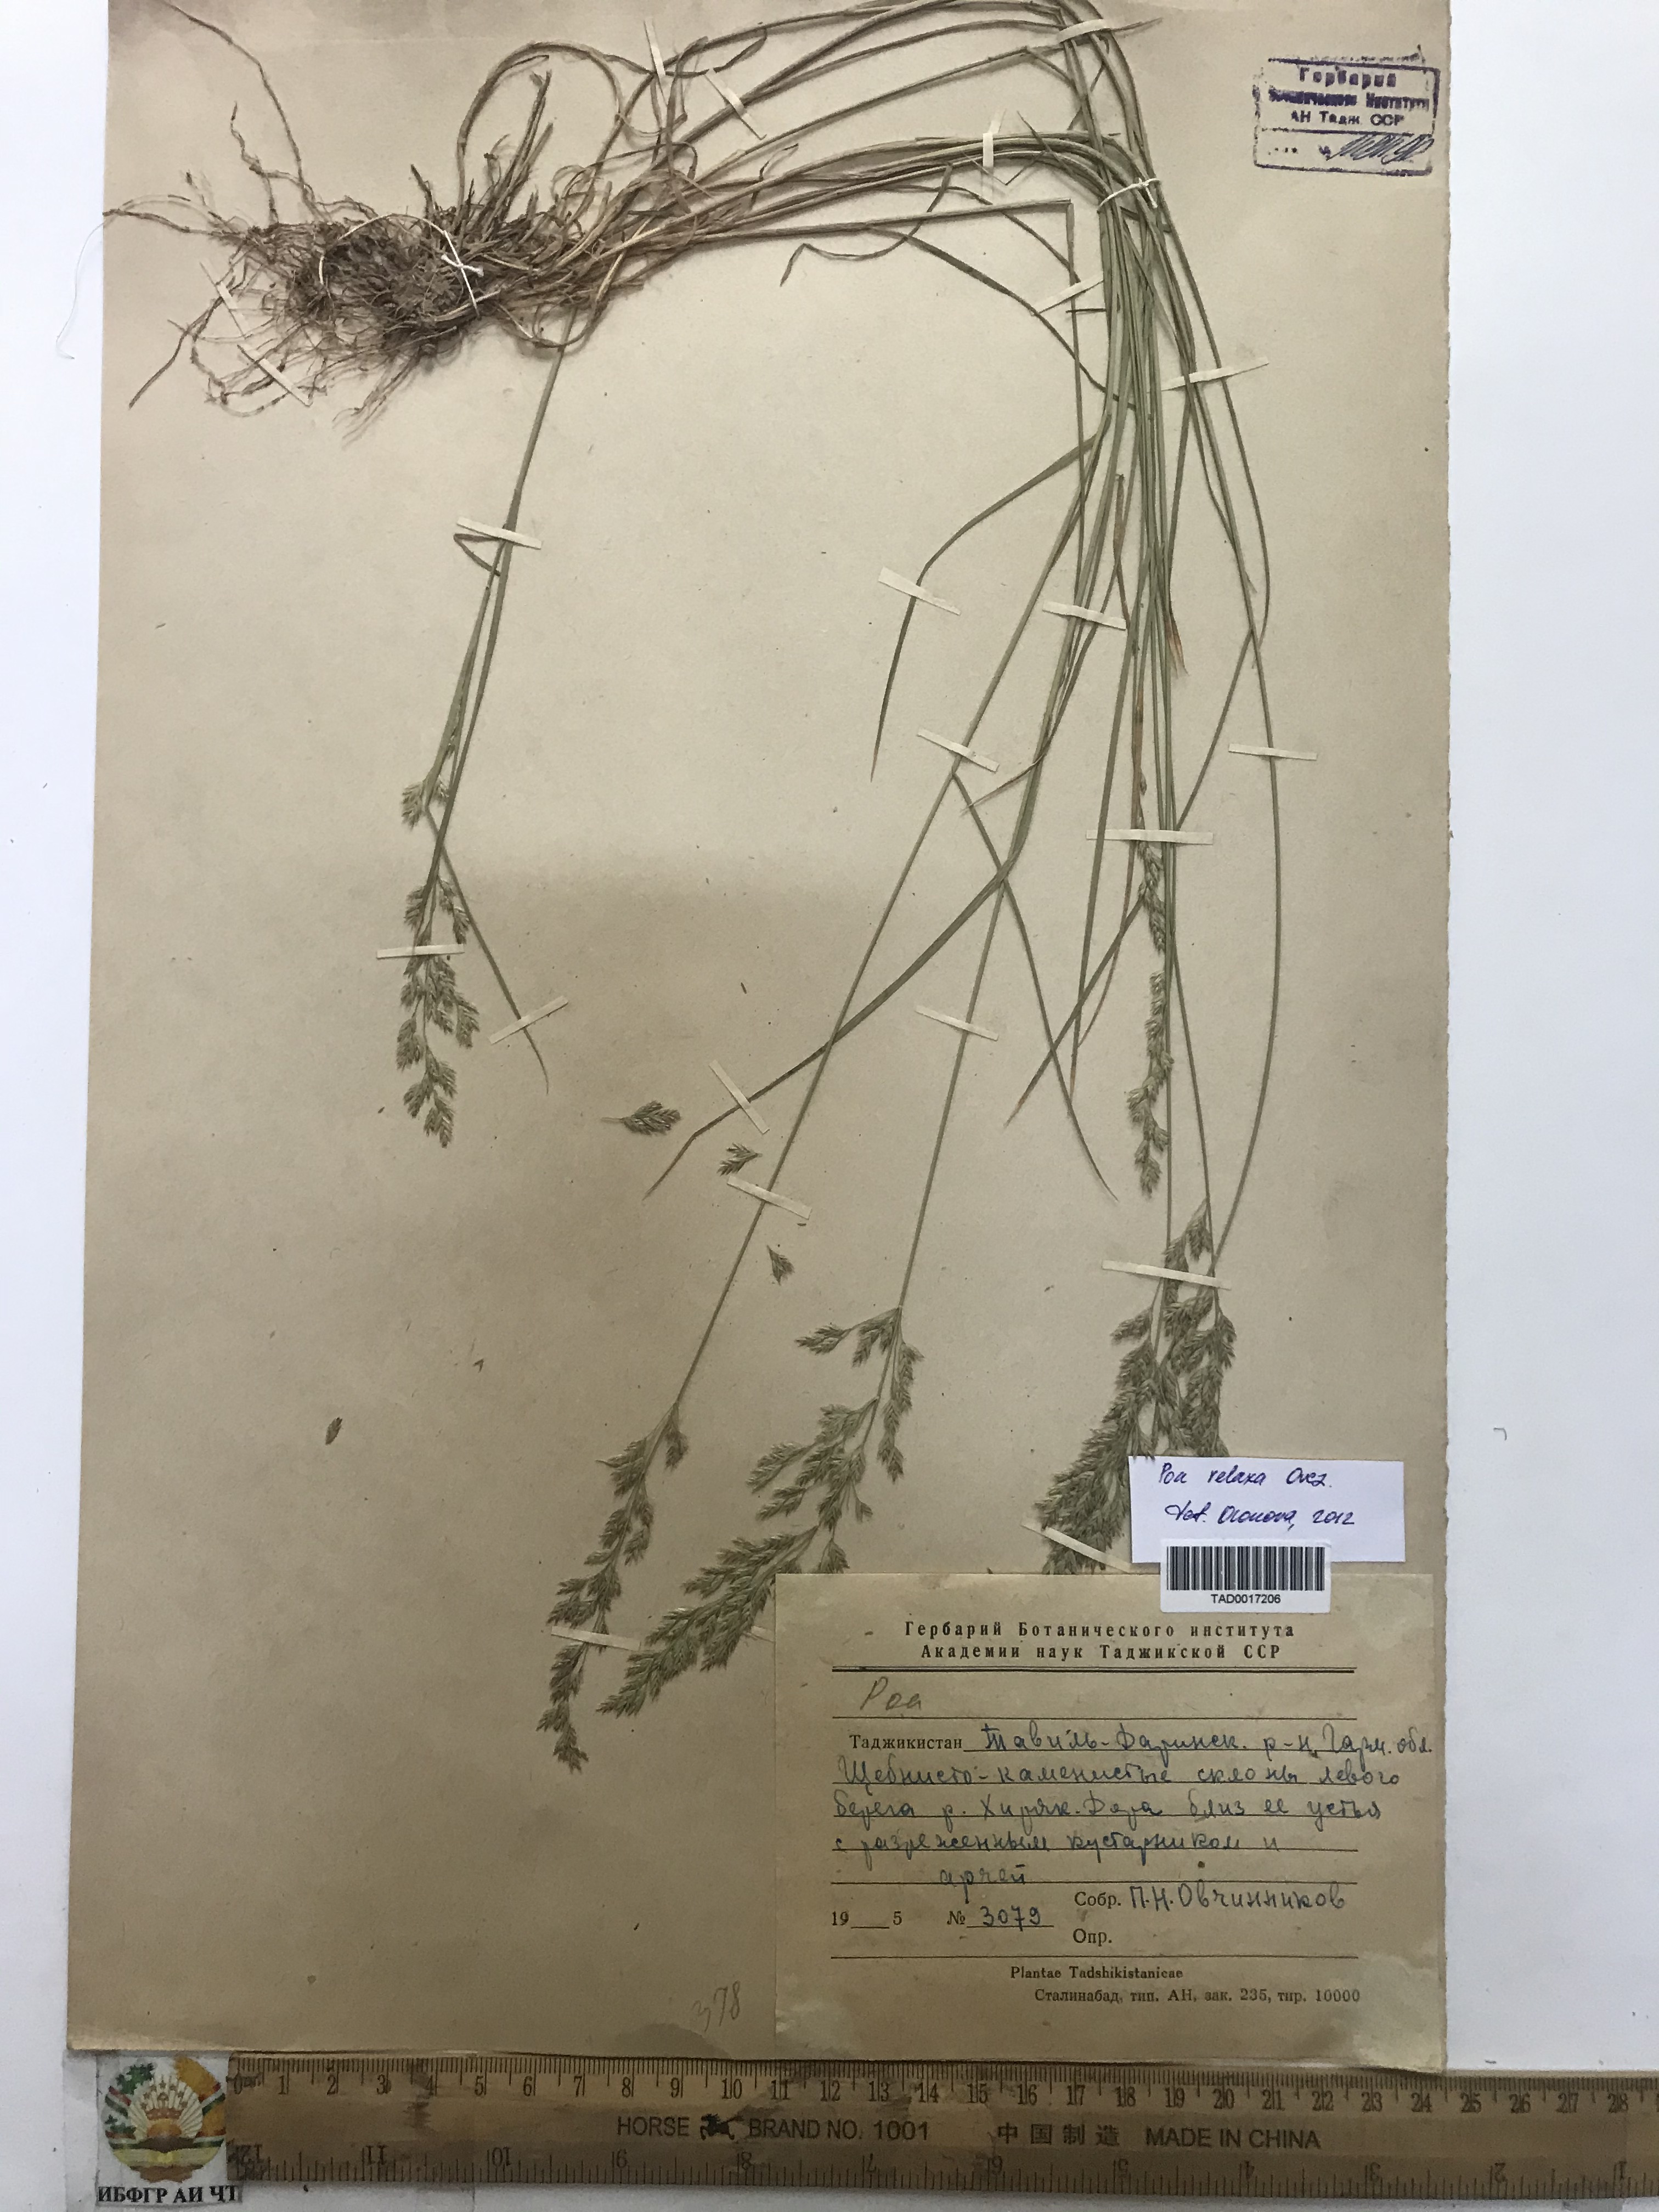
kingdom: Plantae
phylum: Tracheophyta
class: Liliopsida
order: Poales
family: Poaceae
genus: Poa
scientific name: Poa urssulensis
